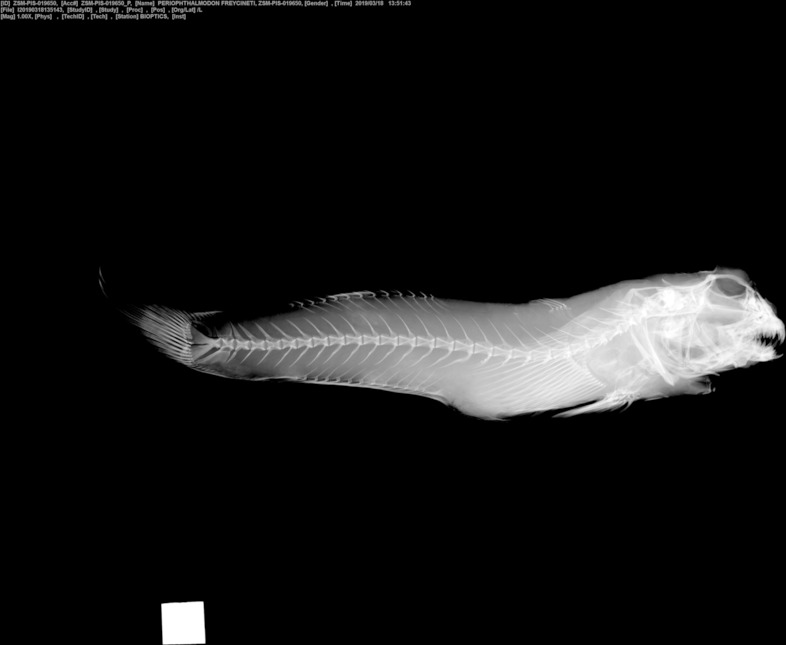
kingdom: Animalia
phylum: Chordata
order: Perciformes
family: Gobiidae
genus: Periophthalmodon
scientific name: Periophthalmodon freycineti
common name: Giant mudskipper
